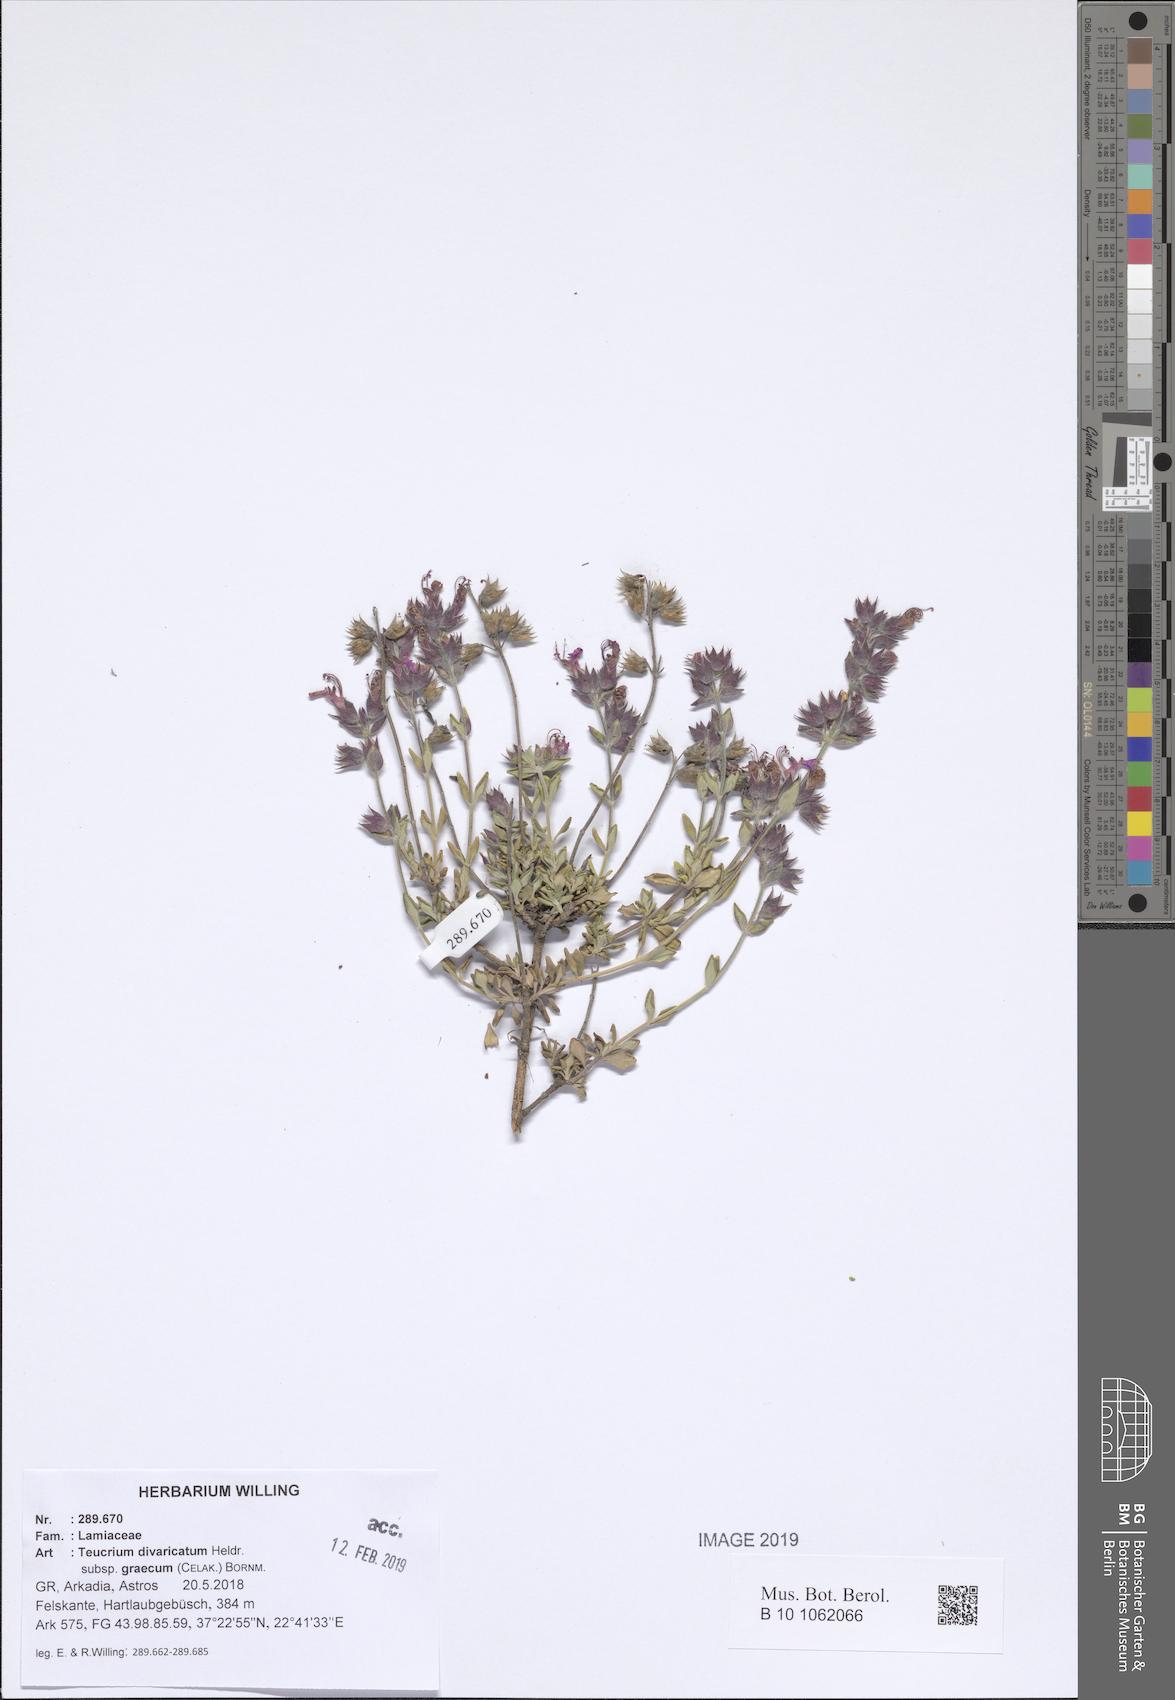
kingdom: Plantae
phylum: Tracheophyta
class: Magnoliopsida
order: Lamiales
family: Lamiaceae
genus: Teucrium
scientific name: Teucrium divaricatum
